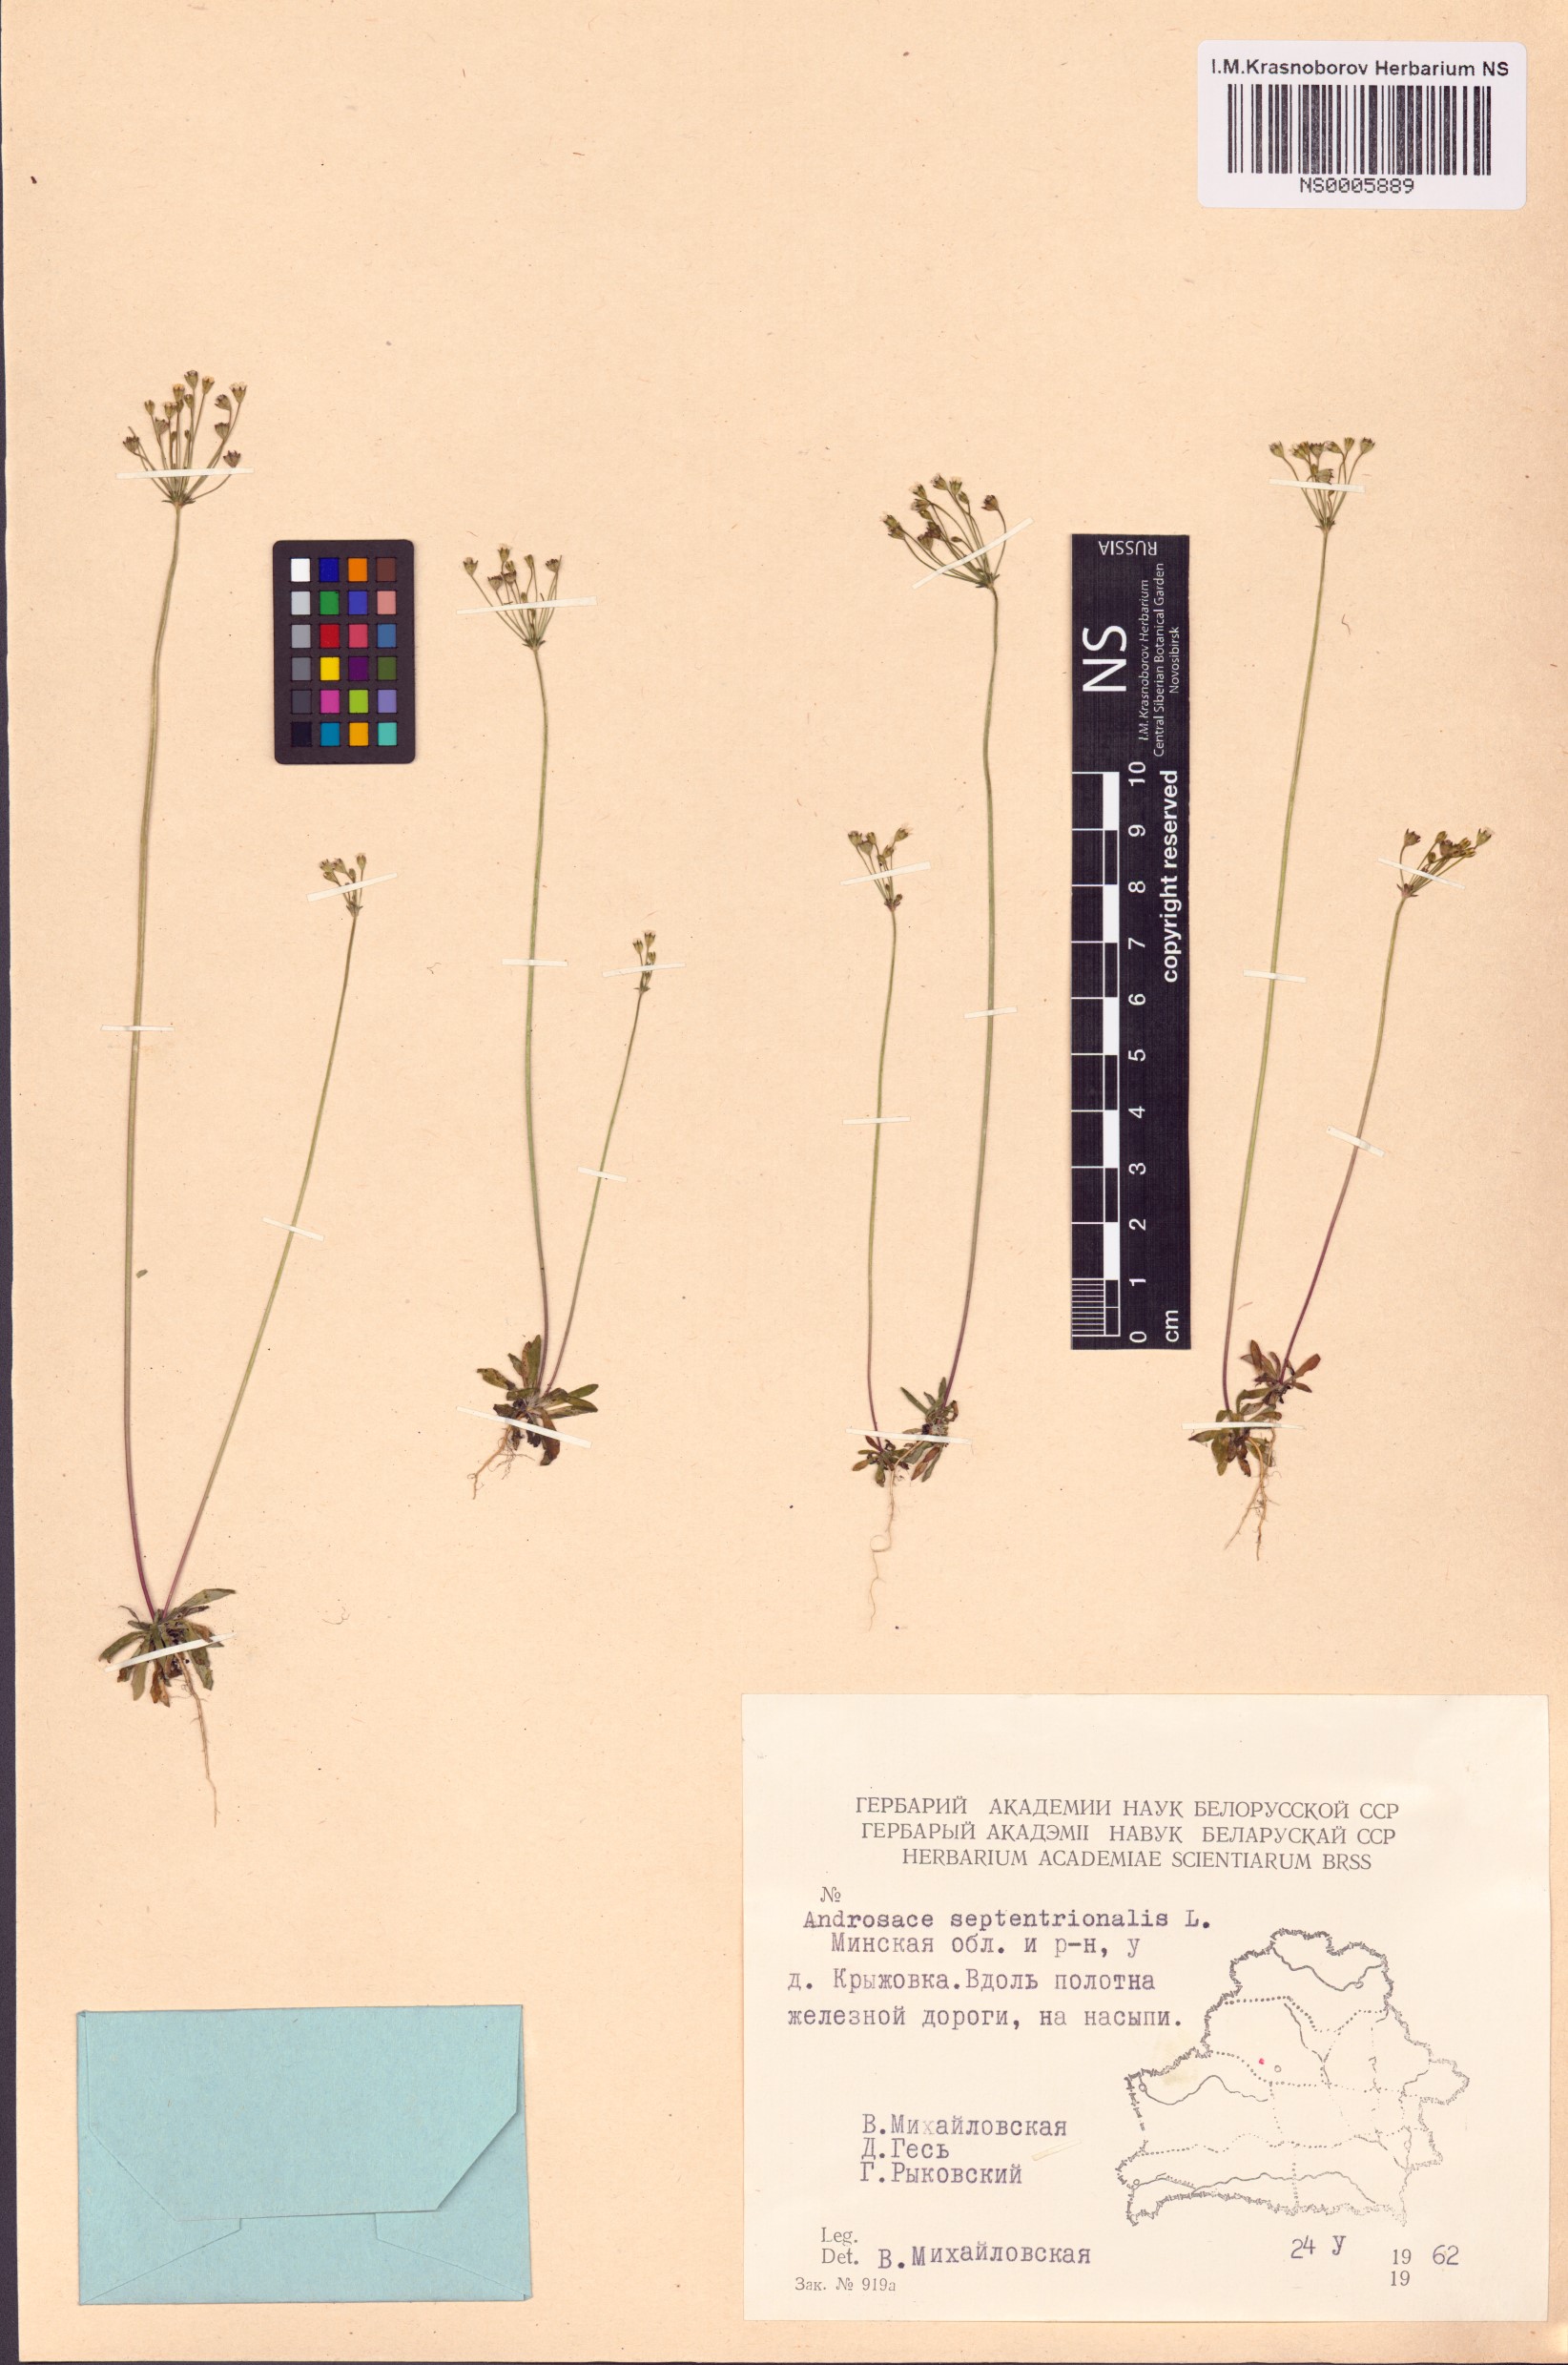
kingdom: Plantae
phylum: Tracheophyta
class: Magnoliopsida
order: Ericales
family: Primulaceae
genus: Androsace
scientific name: Androsace septentrionalis
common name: Hairy northern fairy-candelabra
